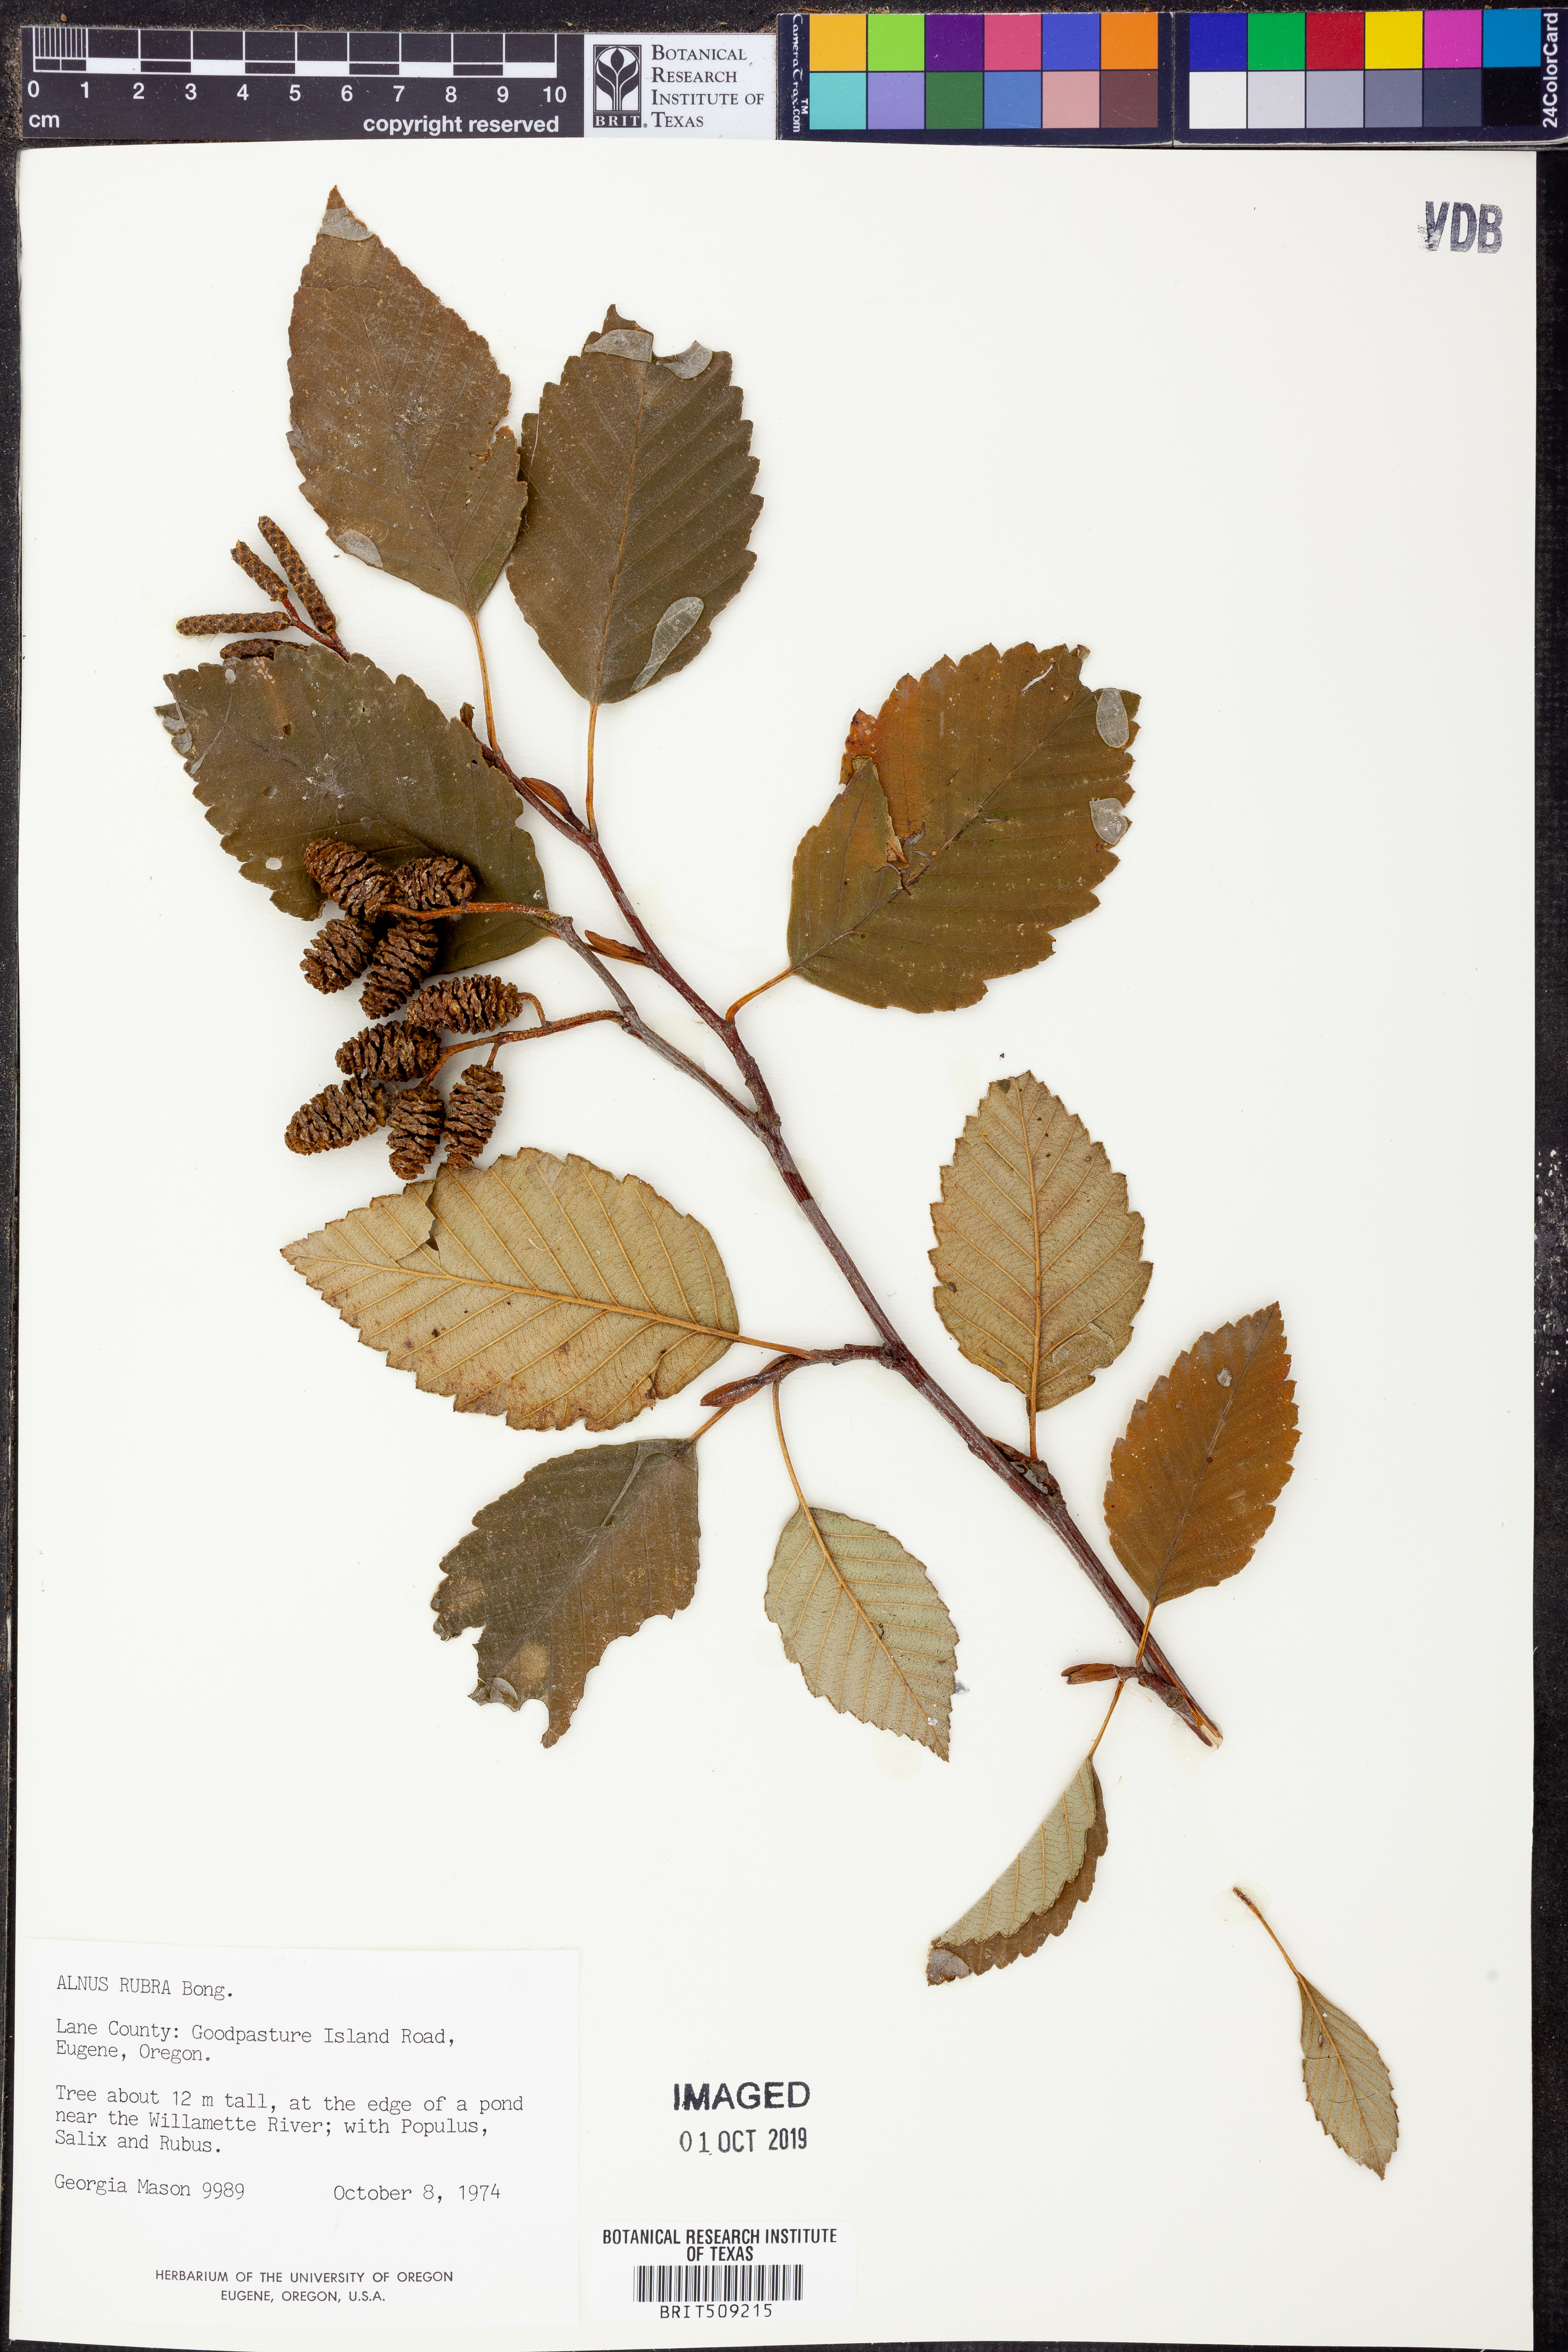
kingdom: Plantae
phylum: Tracheophyta
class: Magnoliopsida
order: Fagales
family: Betulaceae
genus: Alnus
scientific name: Alnus rubra
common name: Red alder
